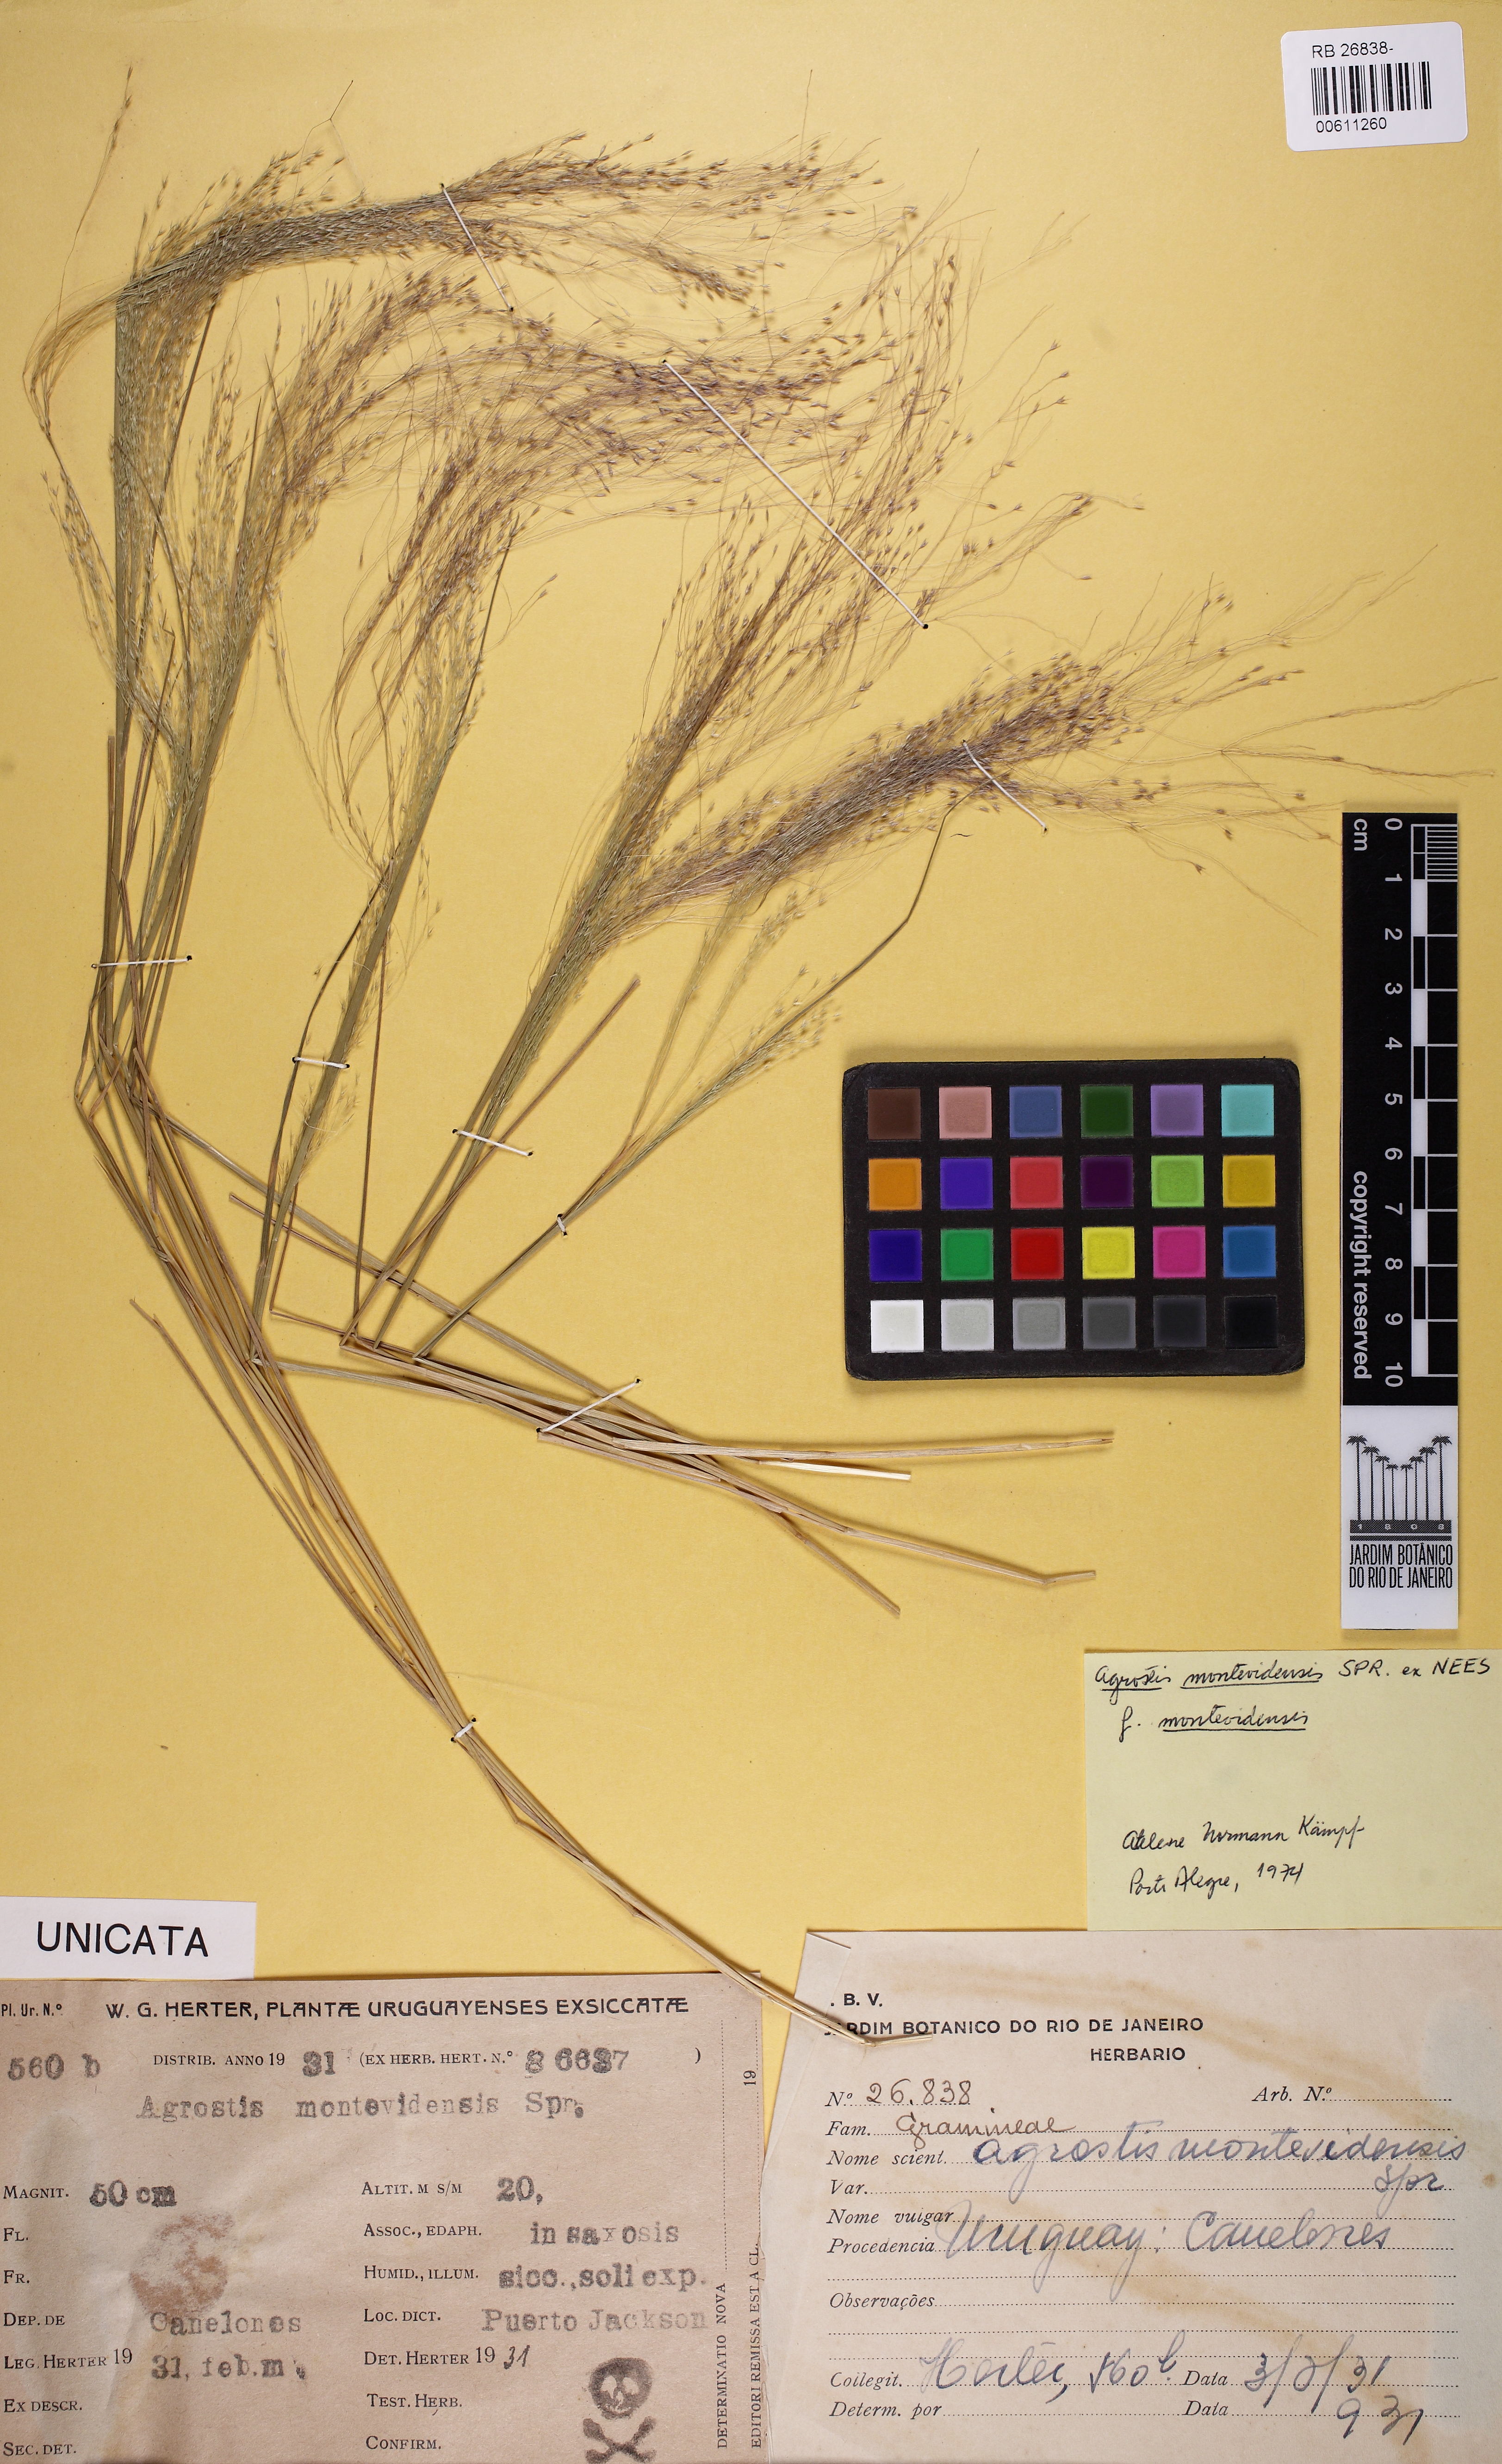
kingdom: Plantae
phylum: Tracheophyta
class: Liliopsida
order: Poales
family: Poaceae
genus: Agrostis
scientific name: Agrostis montevidensis
